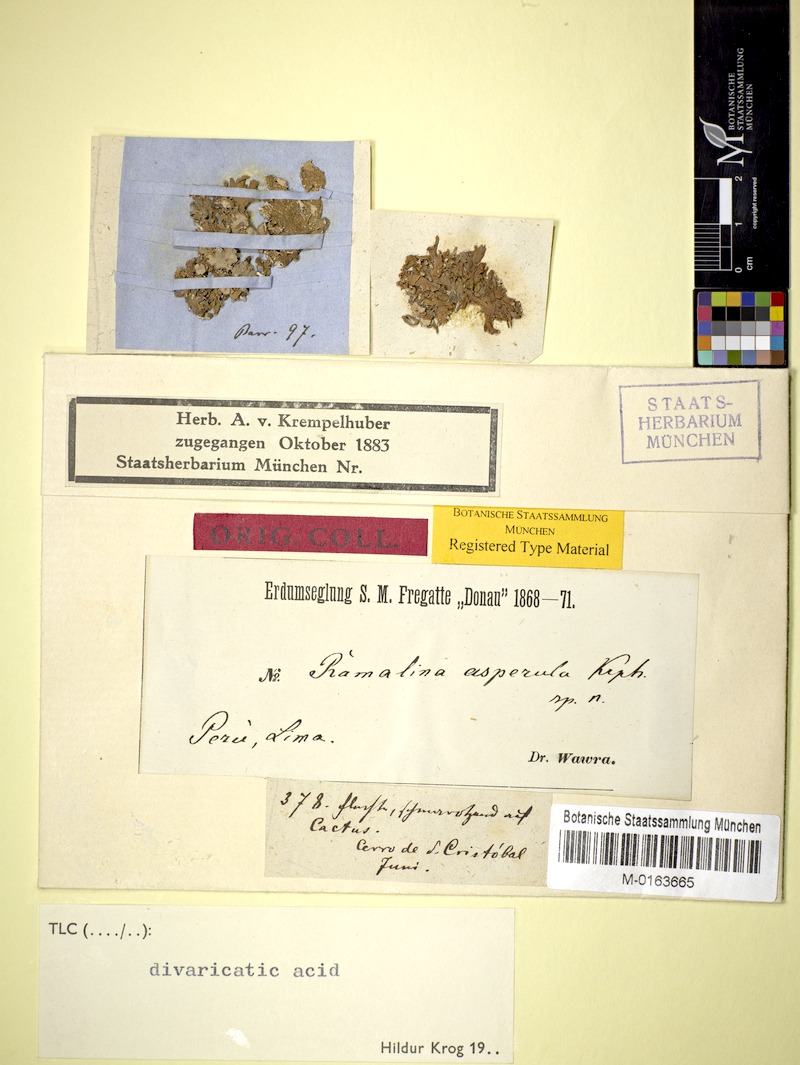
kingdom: Fungi
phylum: Ascomycota
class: Lecanoromycetes
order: Lecanorales
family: Ramalinaceae
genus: Ramalina
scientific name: Ramalina asperula
